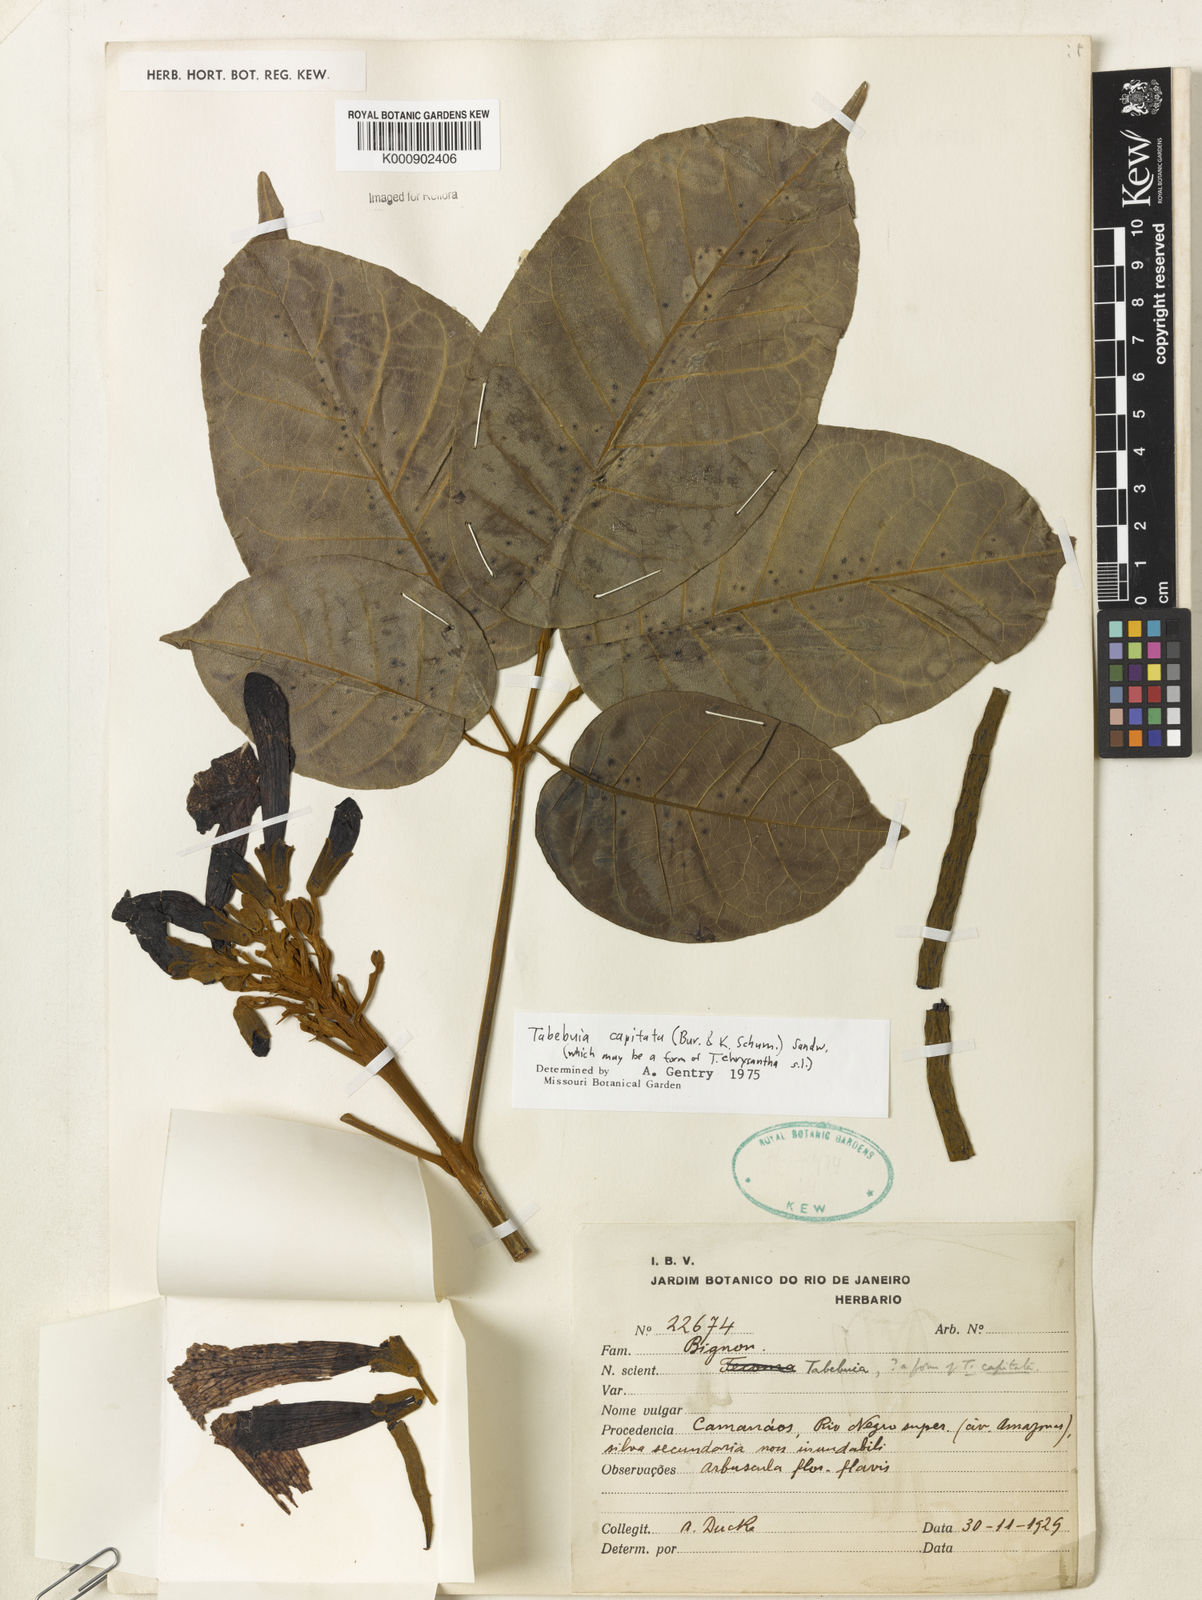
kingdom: Plantae
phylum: Tracheophyta
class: Magnoliopsida
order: Lamiales
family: Bignoniaceae
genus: Handroanthus
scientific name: Handroanthus capitatus
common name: Trumpet trees
